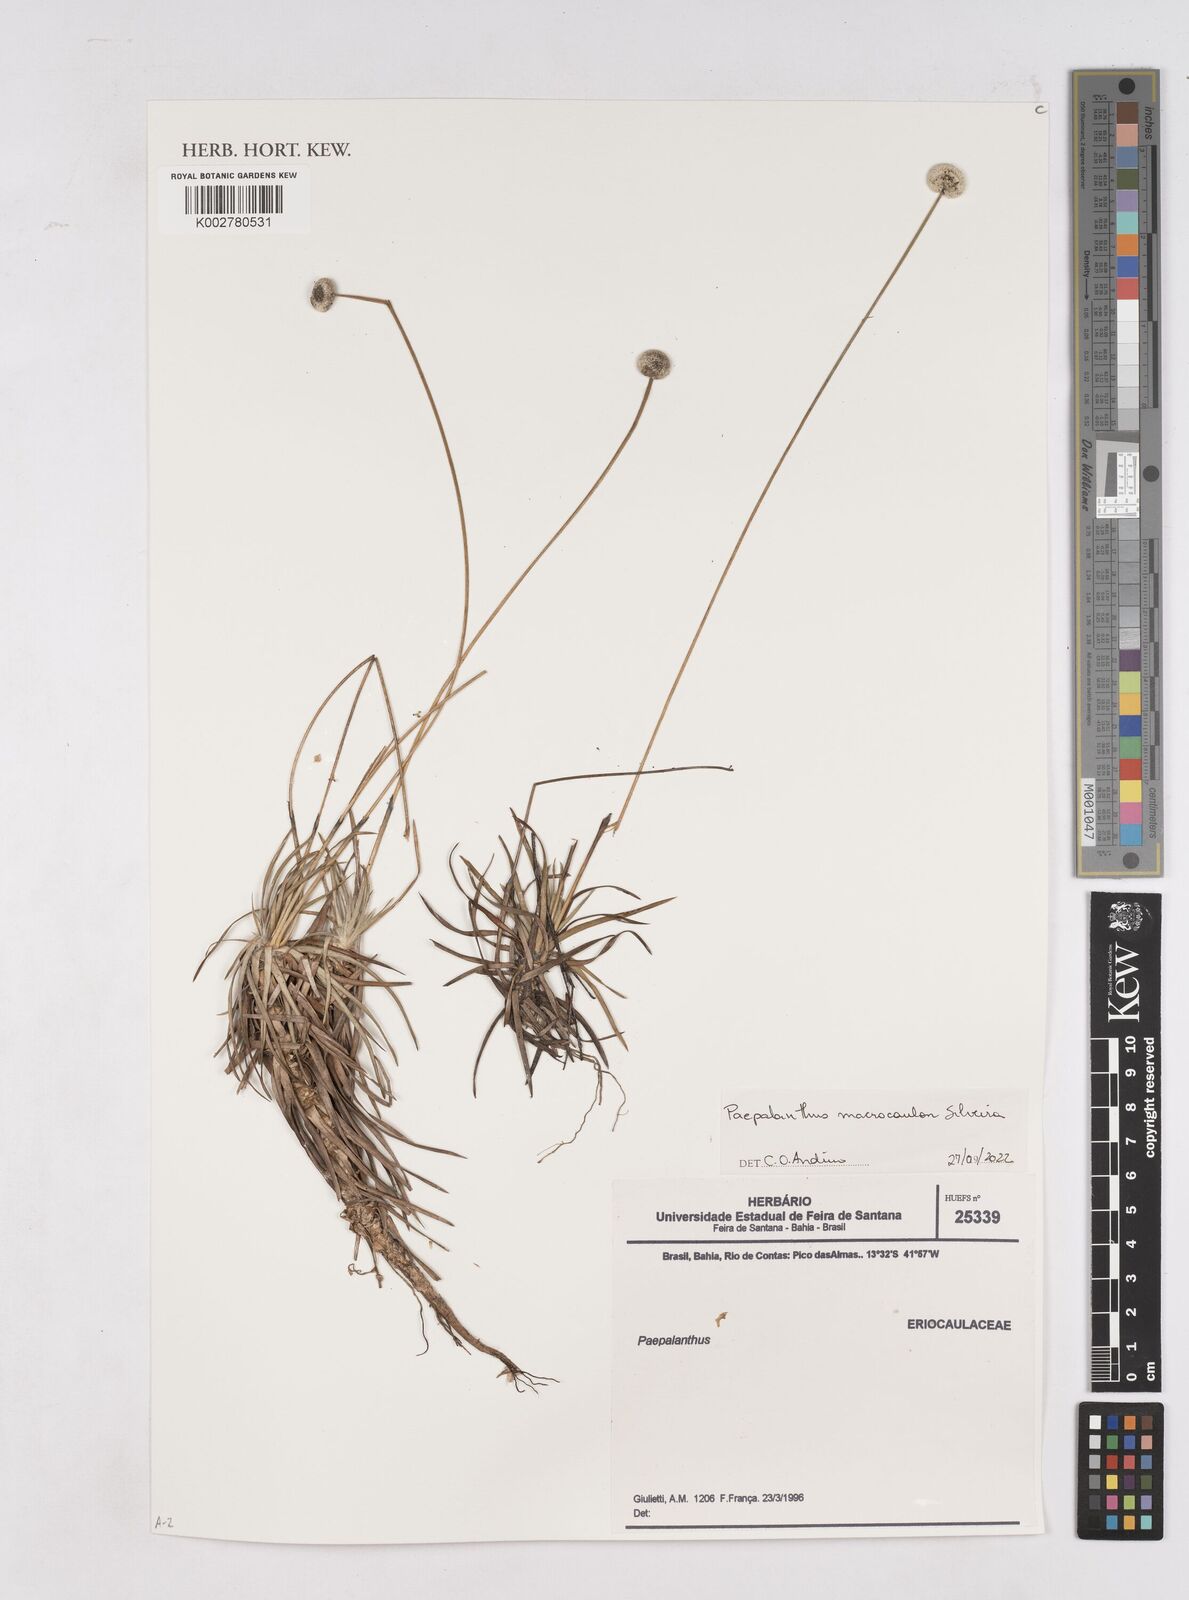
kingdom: Plantae
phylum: Tracheophyta
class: Liliopsida
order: Poales
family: Eriocaulaceae
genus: Paepalanthus
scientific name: Paepalanthus macrocaulon
